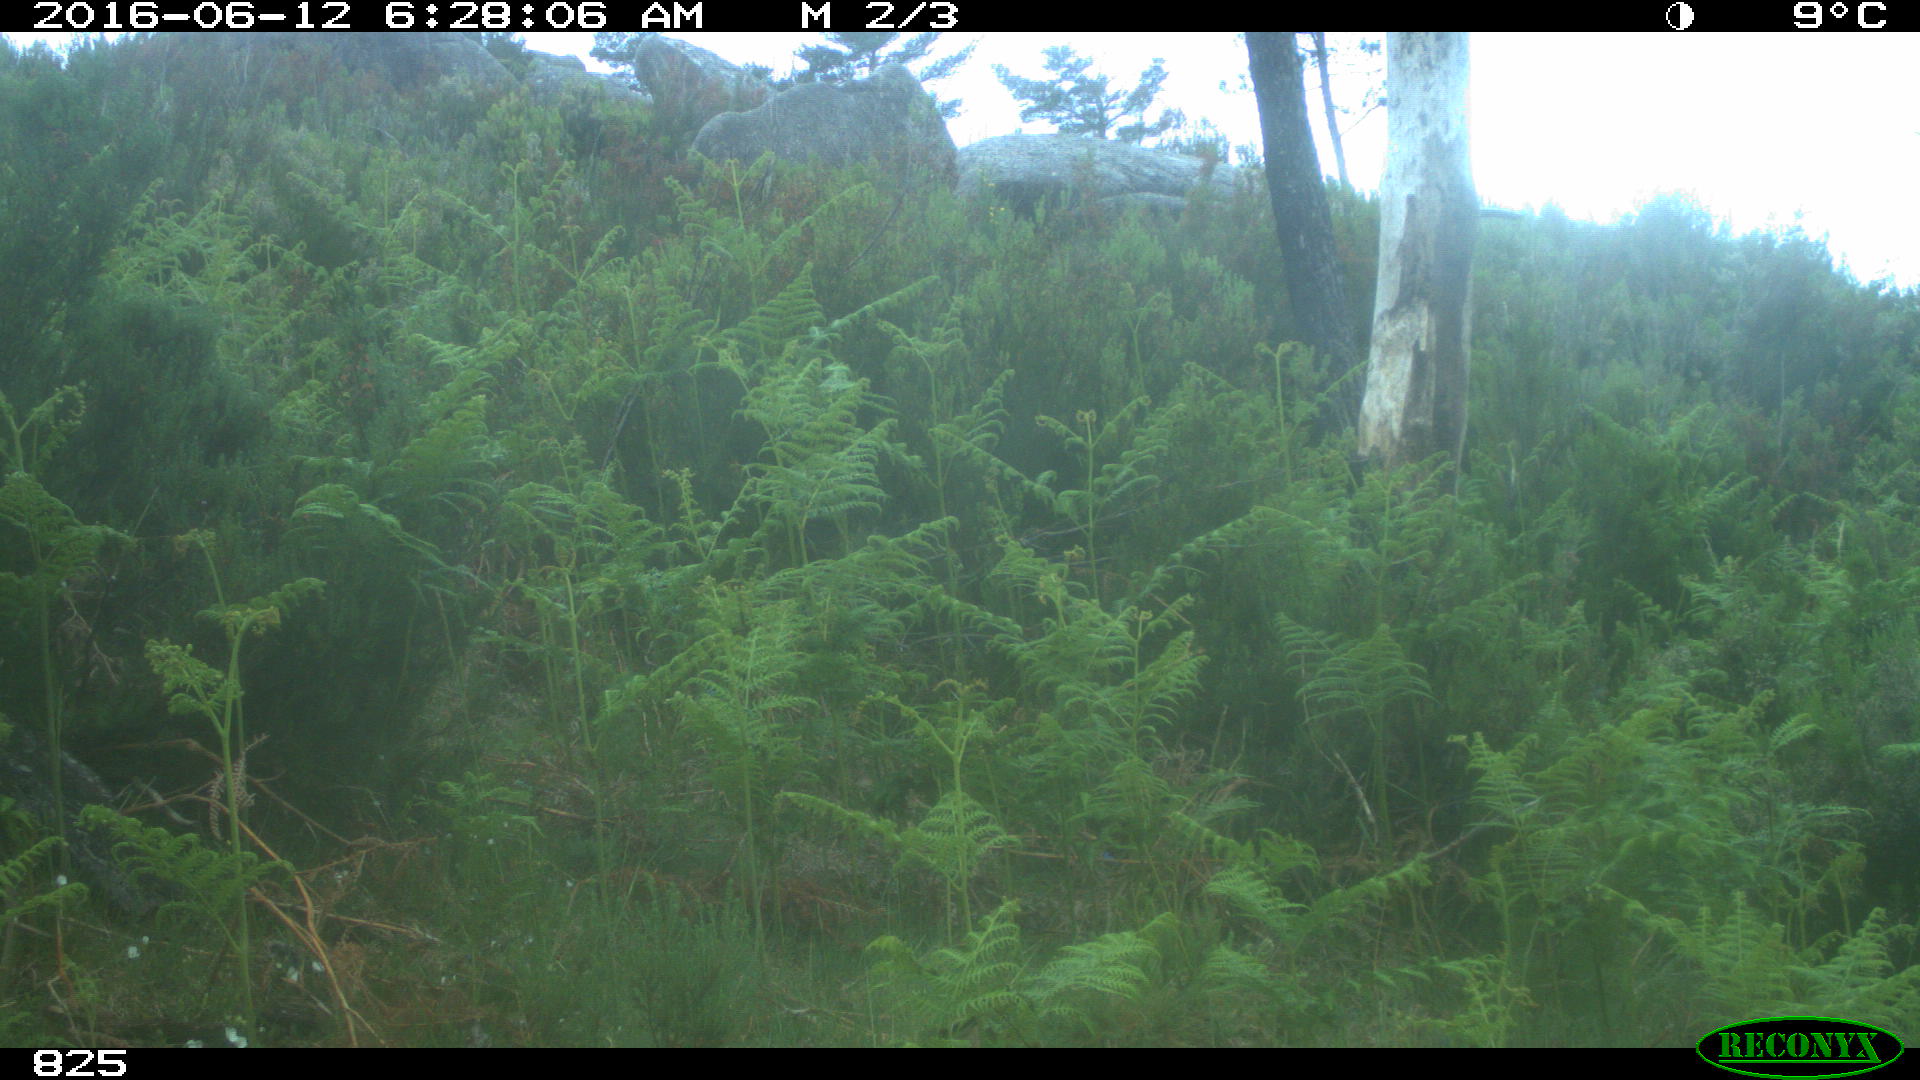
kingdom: Animalia
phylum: Chordata
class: Mammalia
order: Artiodactyla
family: Cervidae
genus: Capreolus
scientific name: Capreolus capreolus
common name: Western roe deer
